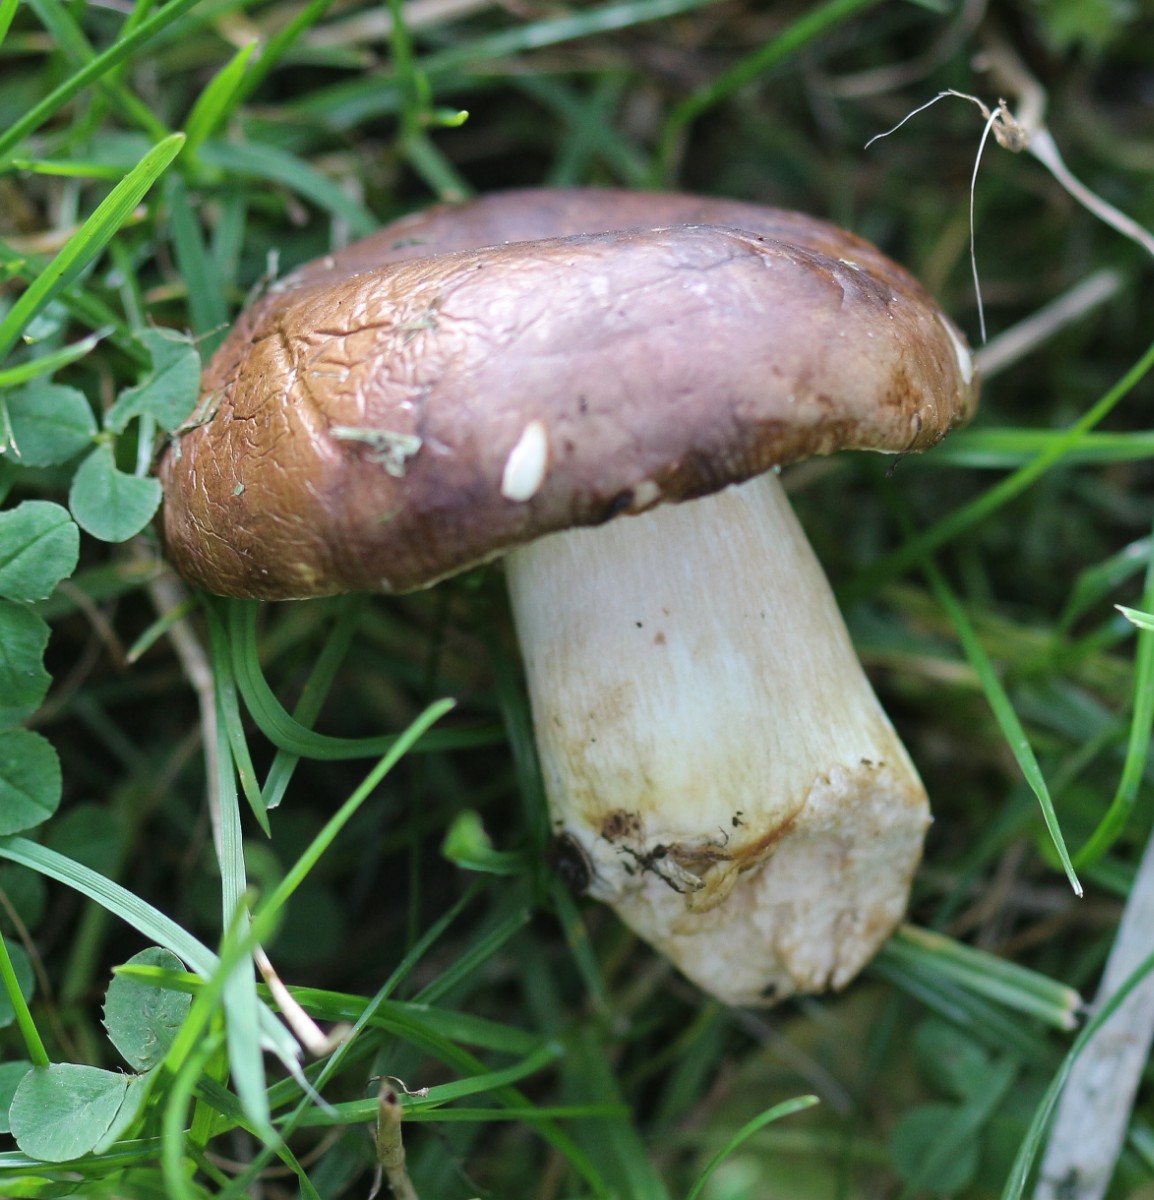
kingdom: Fungi
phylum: Basidiomycota
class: Agaricomycetes
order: Russulales
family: Russulaceae
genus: Russula
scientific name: Russula graveolens
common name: bugtet skørhat
